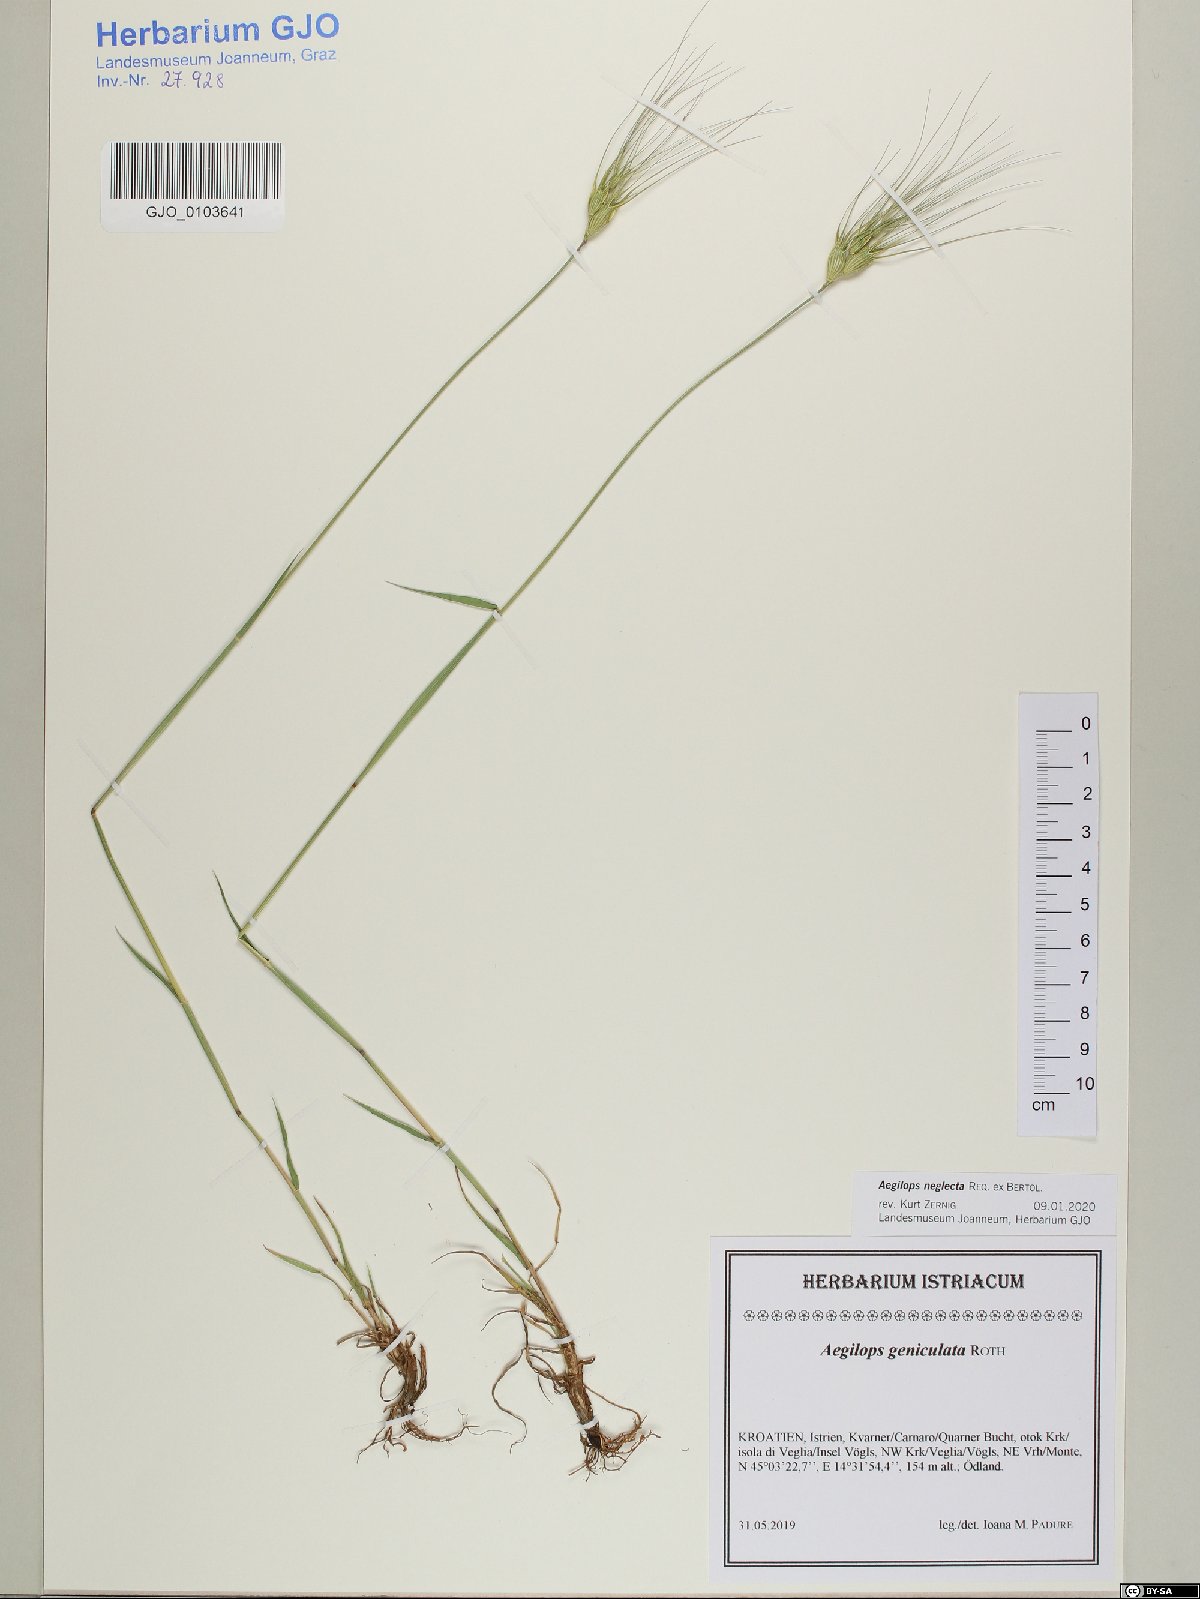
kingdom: Plantae
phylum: Tracheophyta
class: Liliopsida
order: Poales
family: Poaceae
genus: Aegilops
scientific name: Aegilops neglecta
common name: Three-awn goat grass
